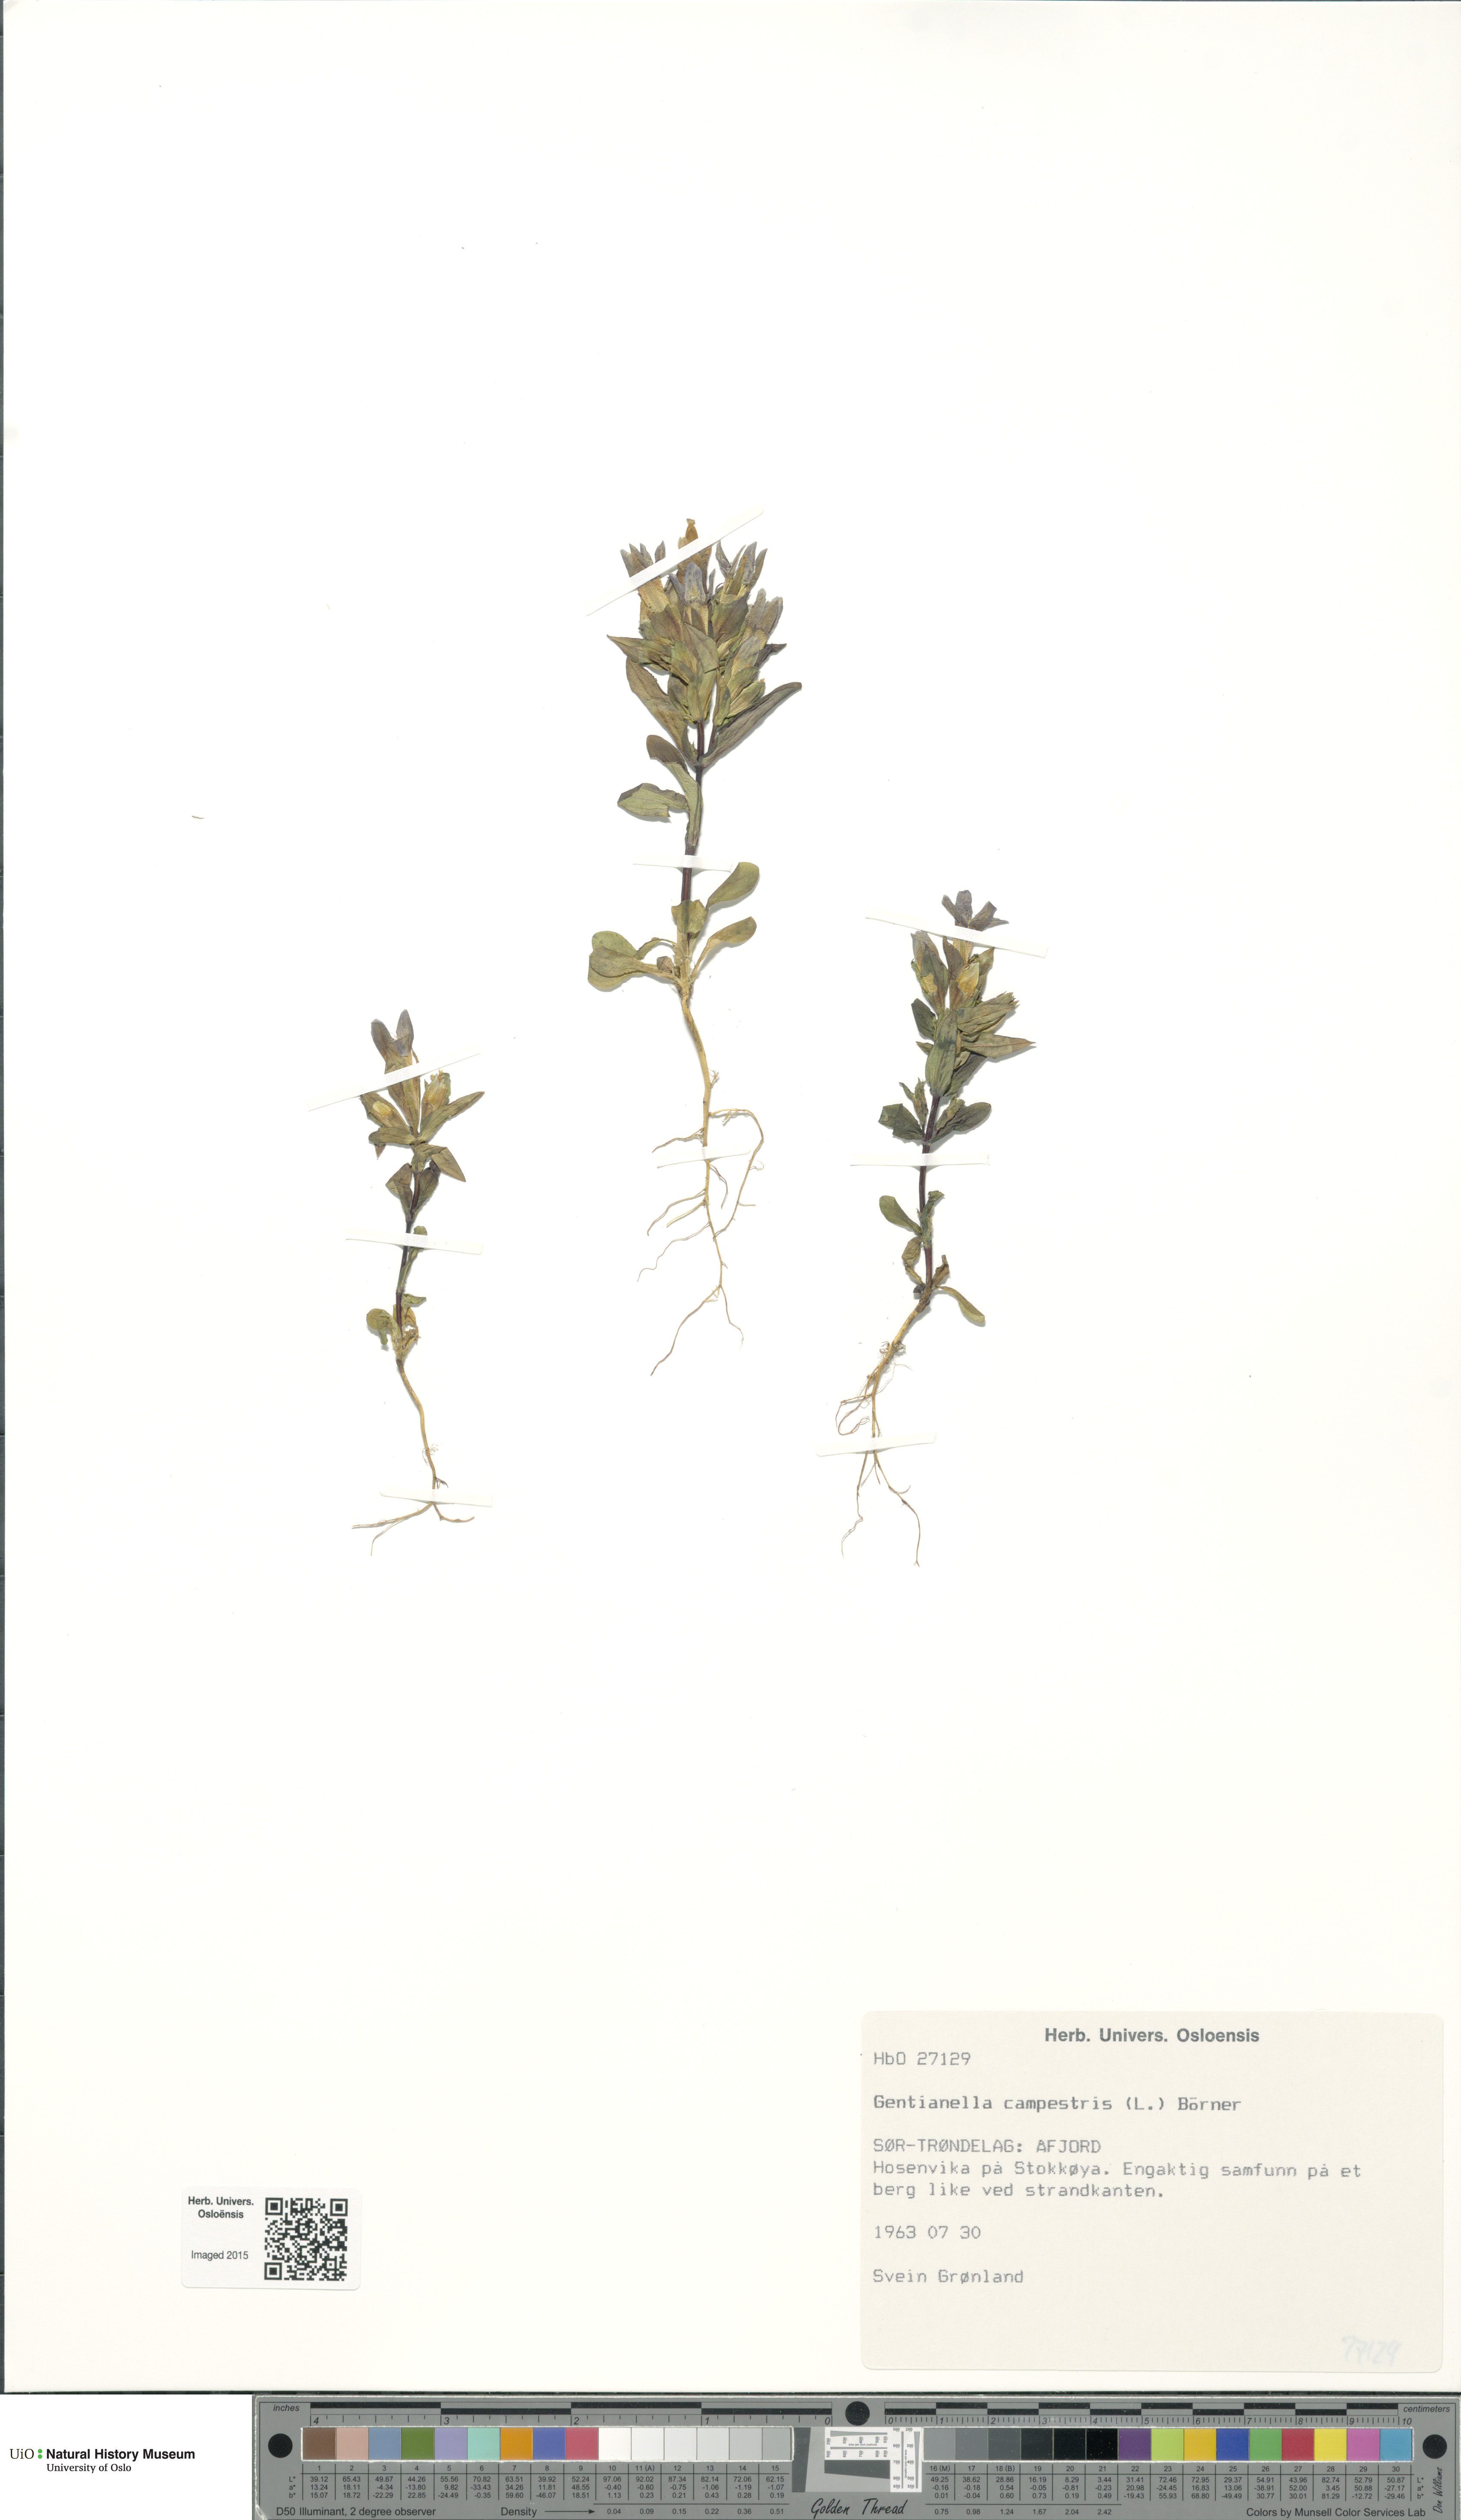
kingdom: Plantae
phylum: Tracheophyta
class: Magnoliopsida
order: Gentianales
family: Gentianaceae
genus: Gentianella
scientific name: Gentianella campestris
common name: Field gentian
